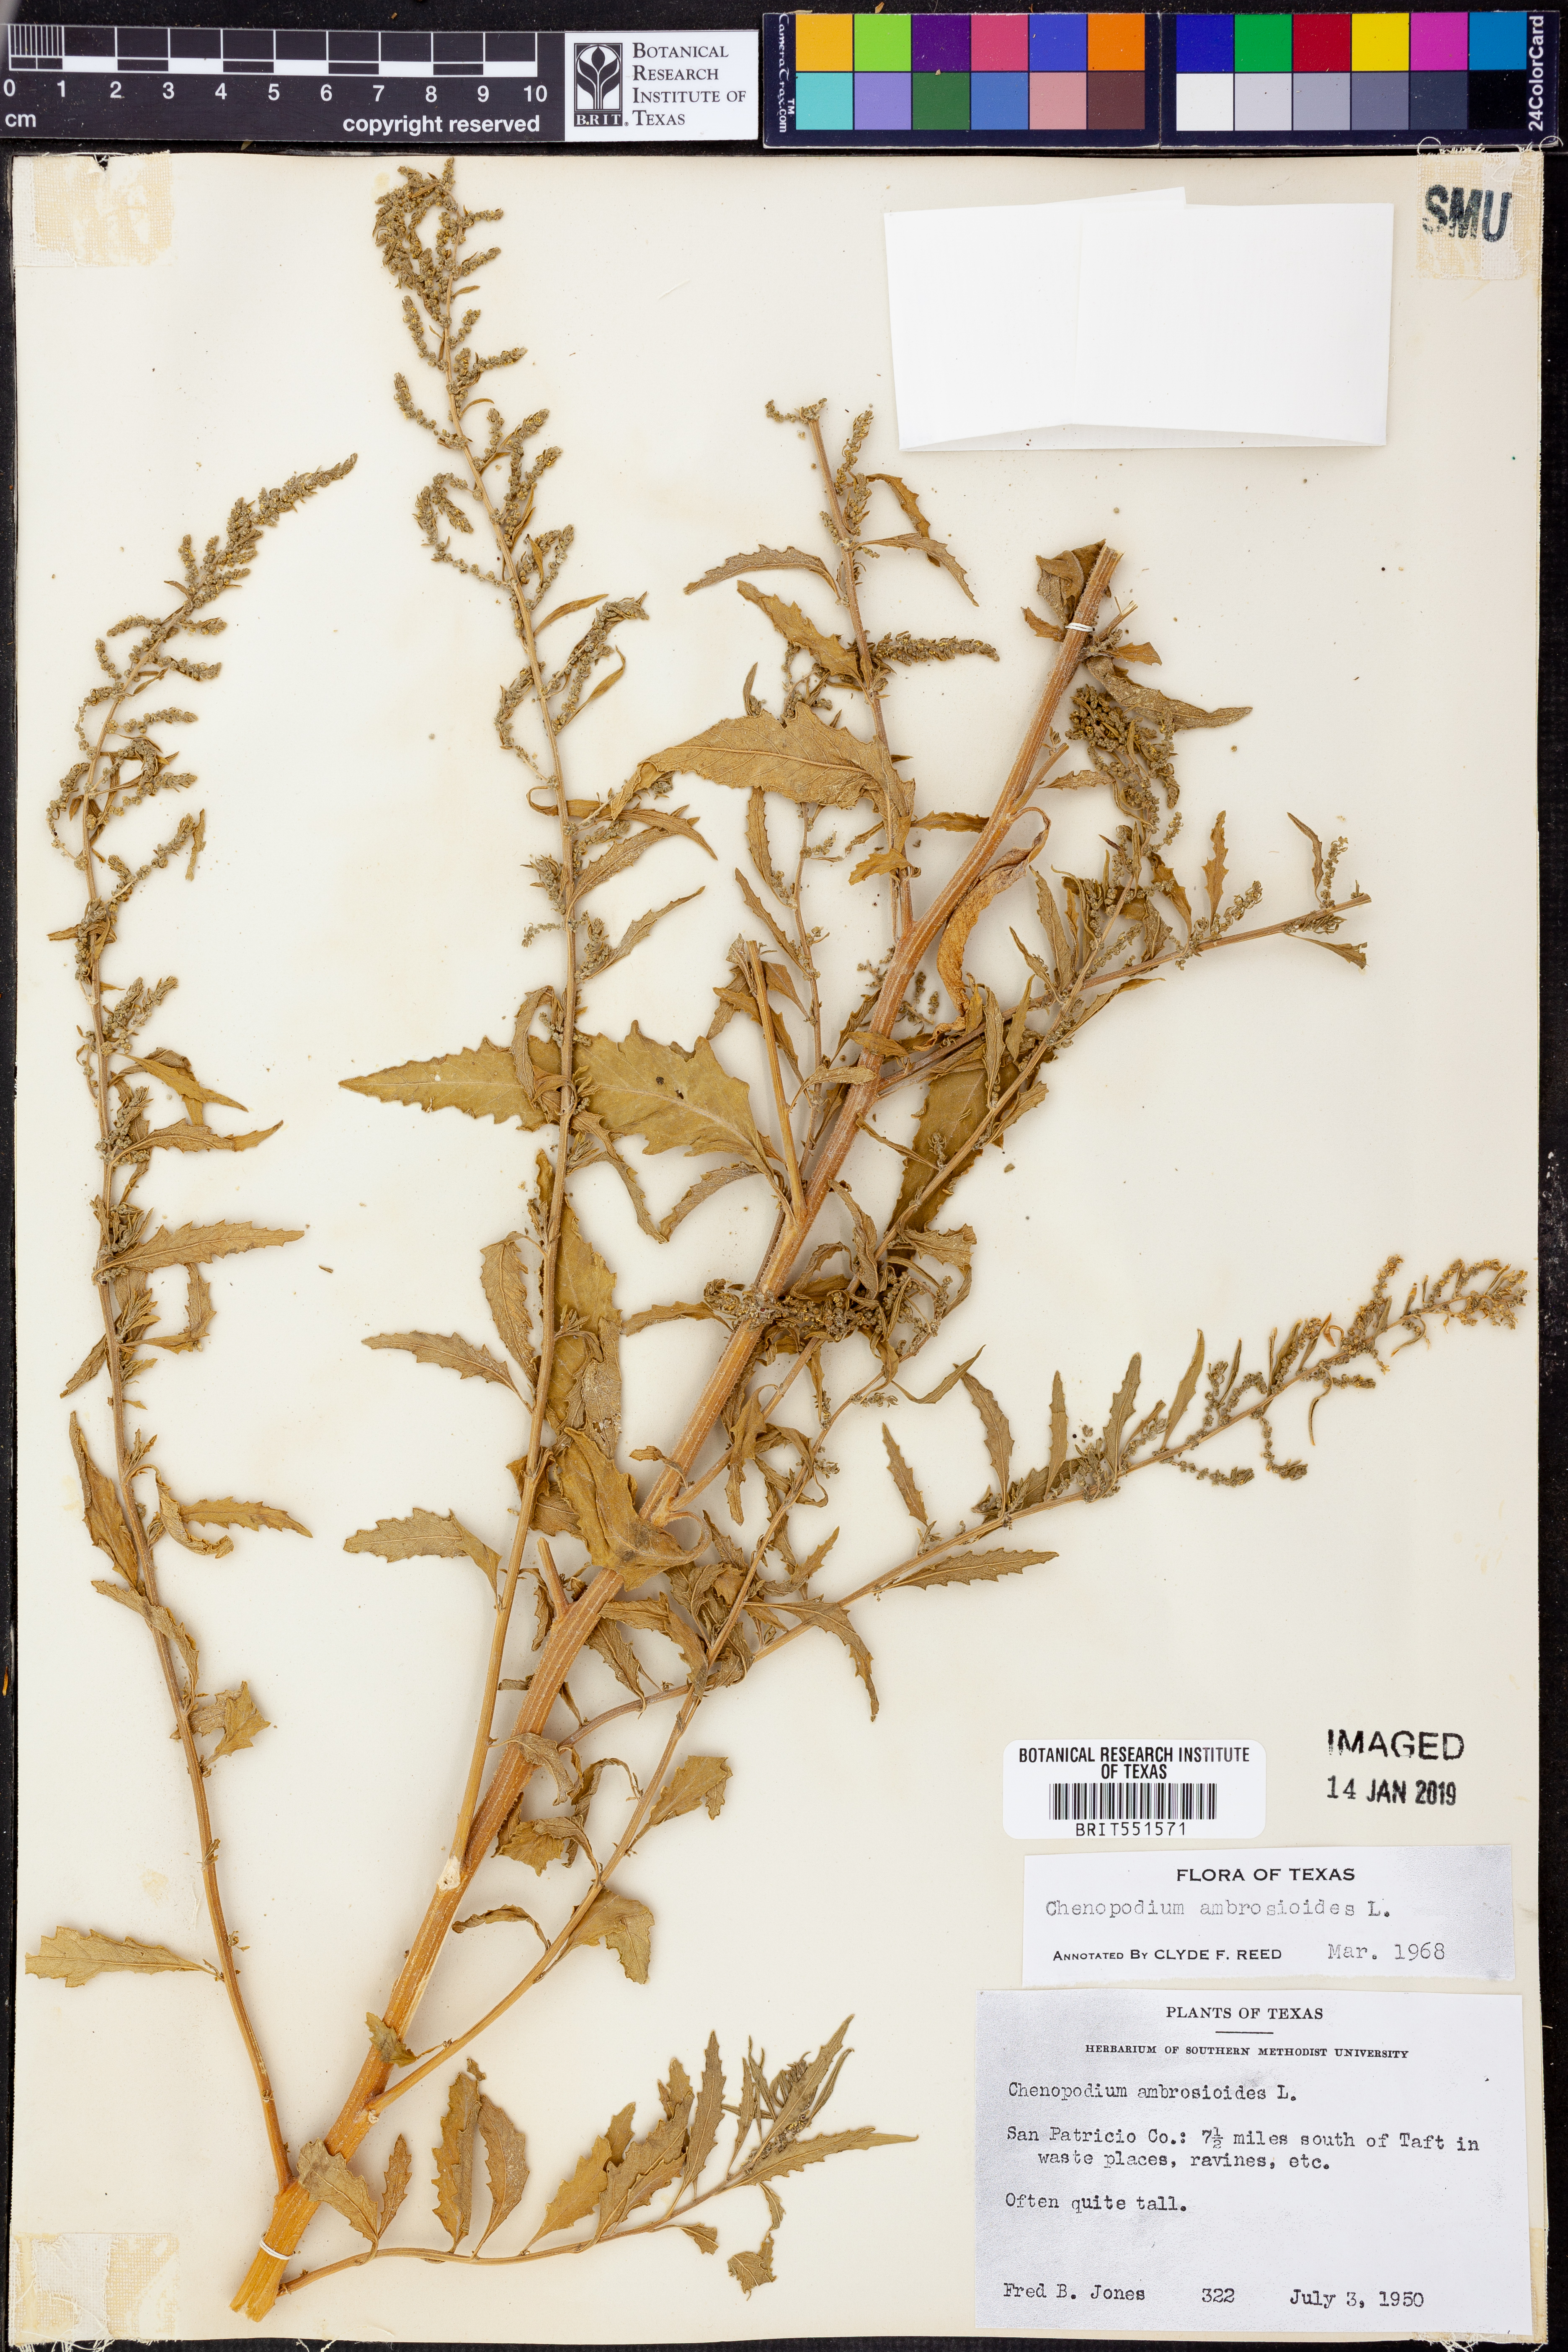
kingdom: Plantae
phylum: Tracheophyta
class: Magnoliopsida
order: Caryophyllales
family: Amaranthaceae
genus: Dysphania
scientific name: Dysphania ambrosioides
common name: Wormseed
